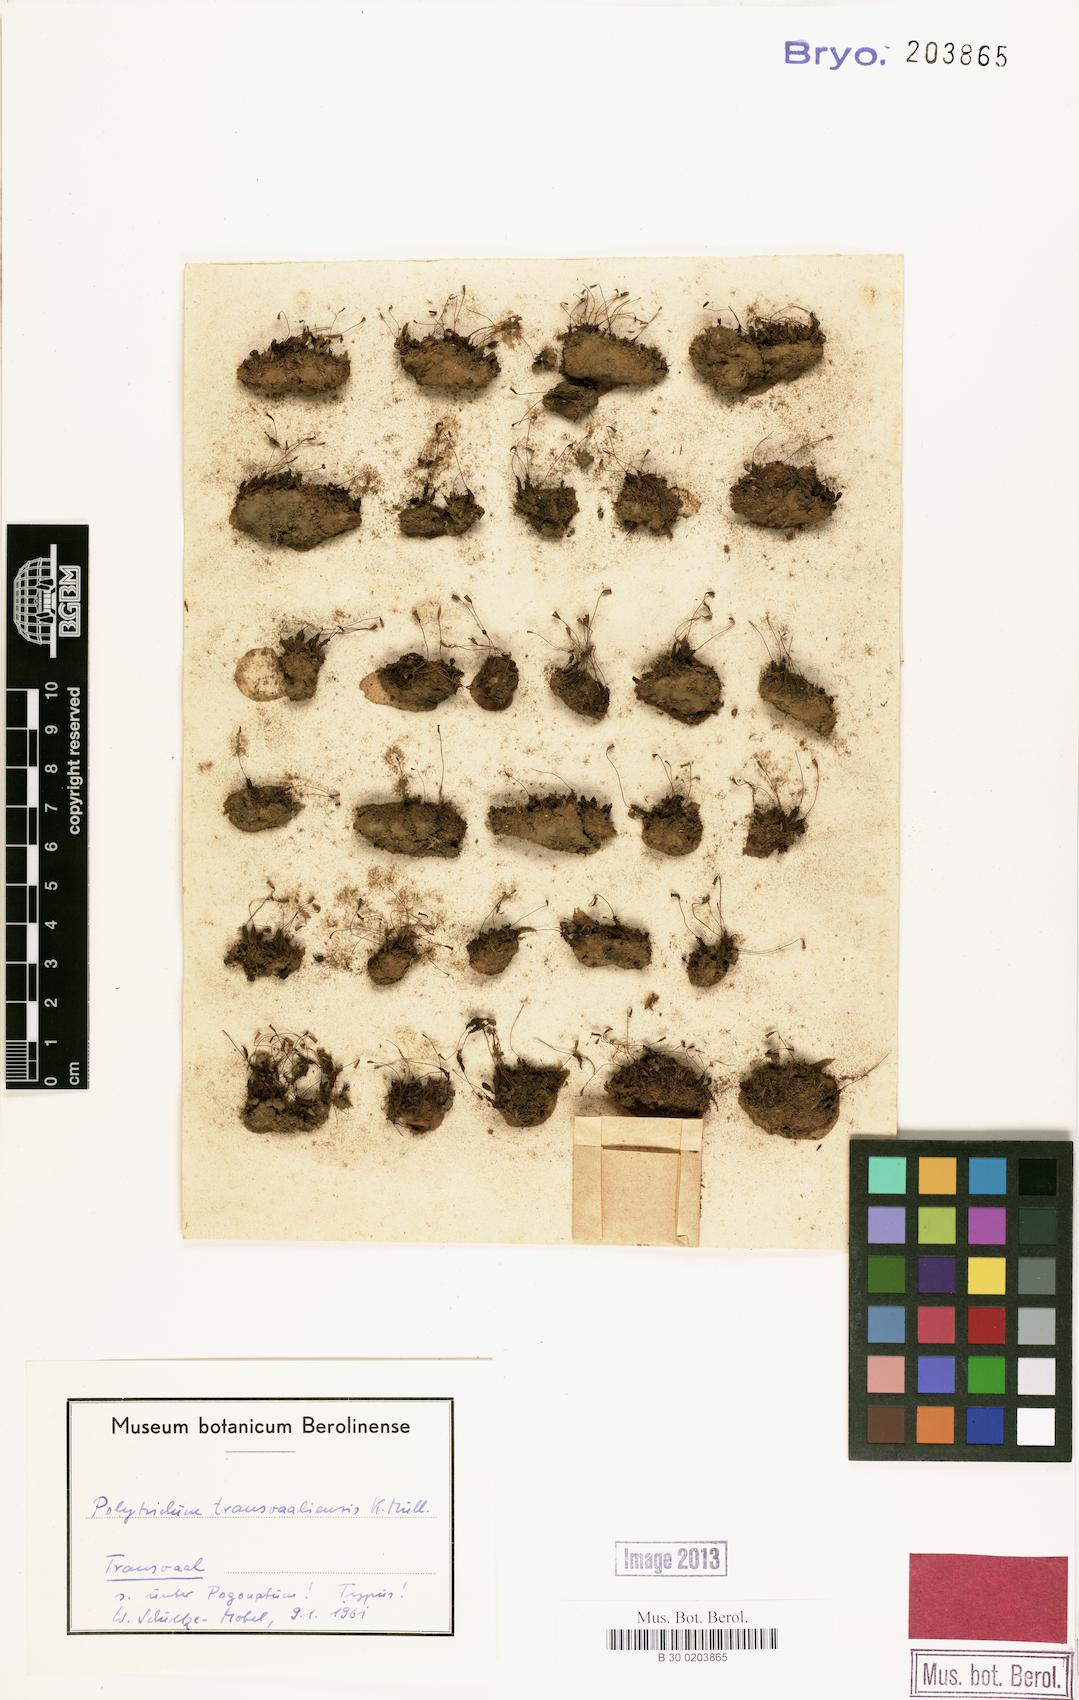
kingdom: Plantae
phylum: Bryophyta
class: Polytrichopsida
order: Polytrichales
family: Polytrichaceae
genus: Pogonatum
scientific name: Pogonatum capense
